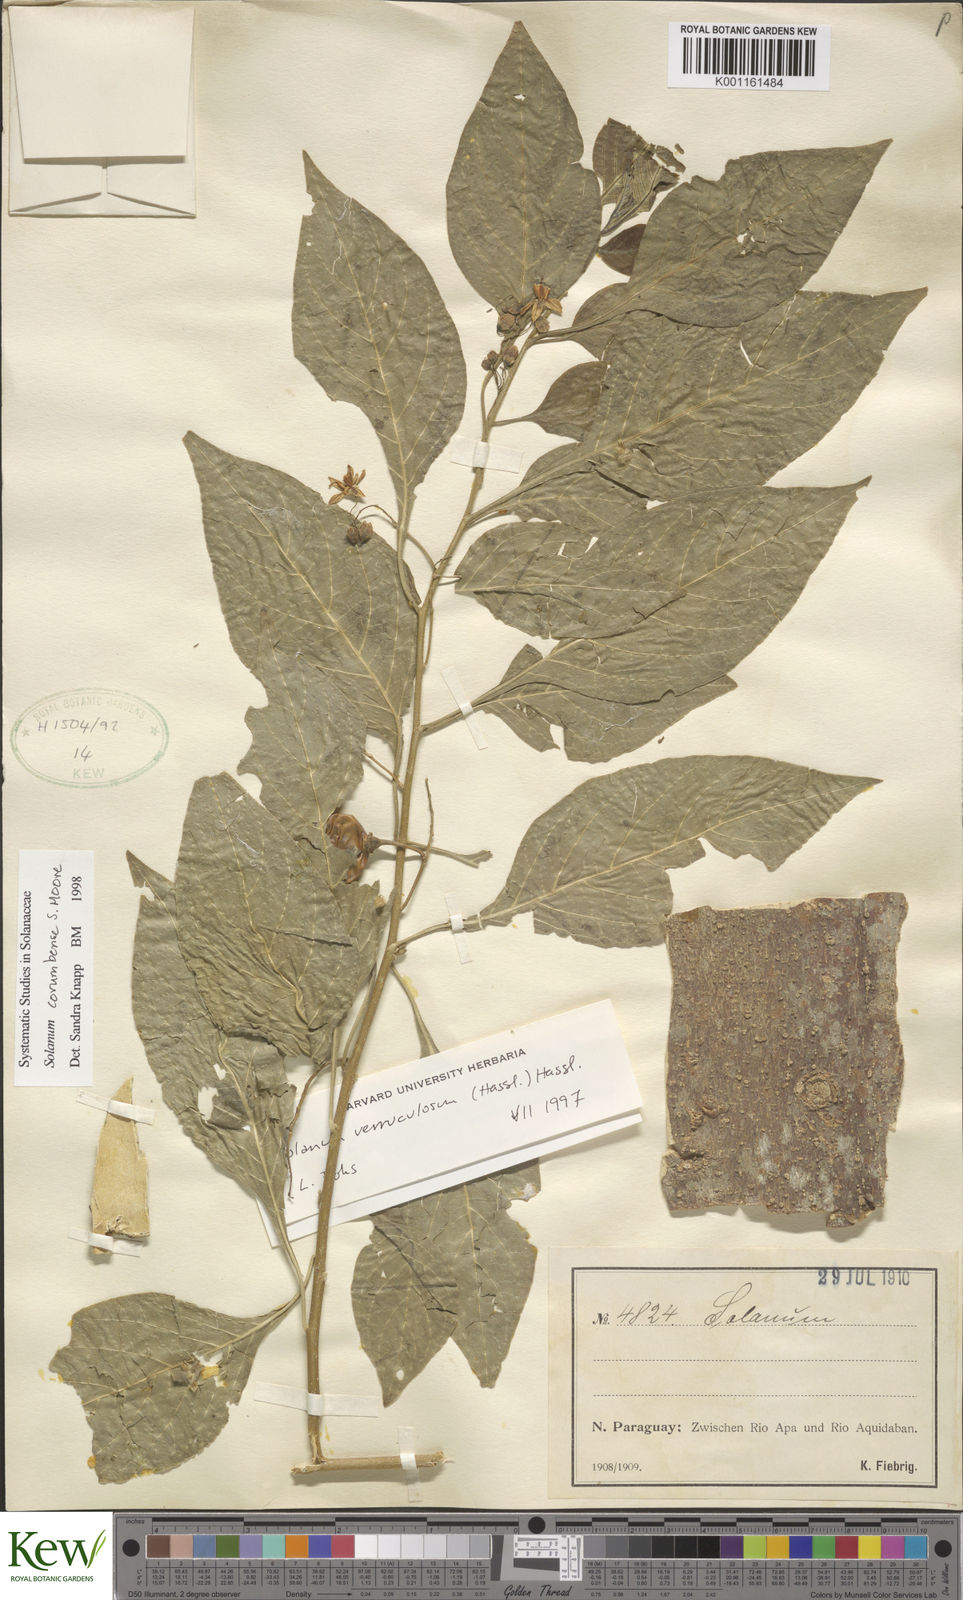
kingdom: Plantae
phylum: Tracheophyta
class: Magnoliopsida
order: Solanales
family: Solanaceae
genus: Solanum
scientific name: Solanum corumbense
